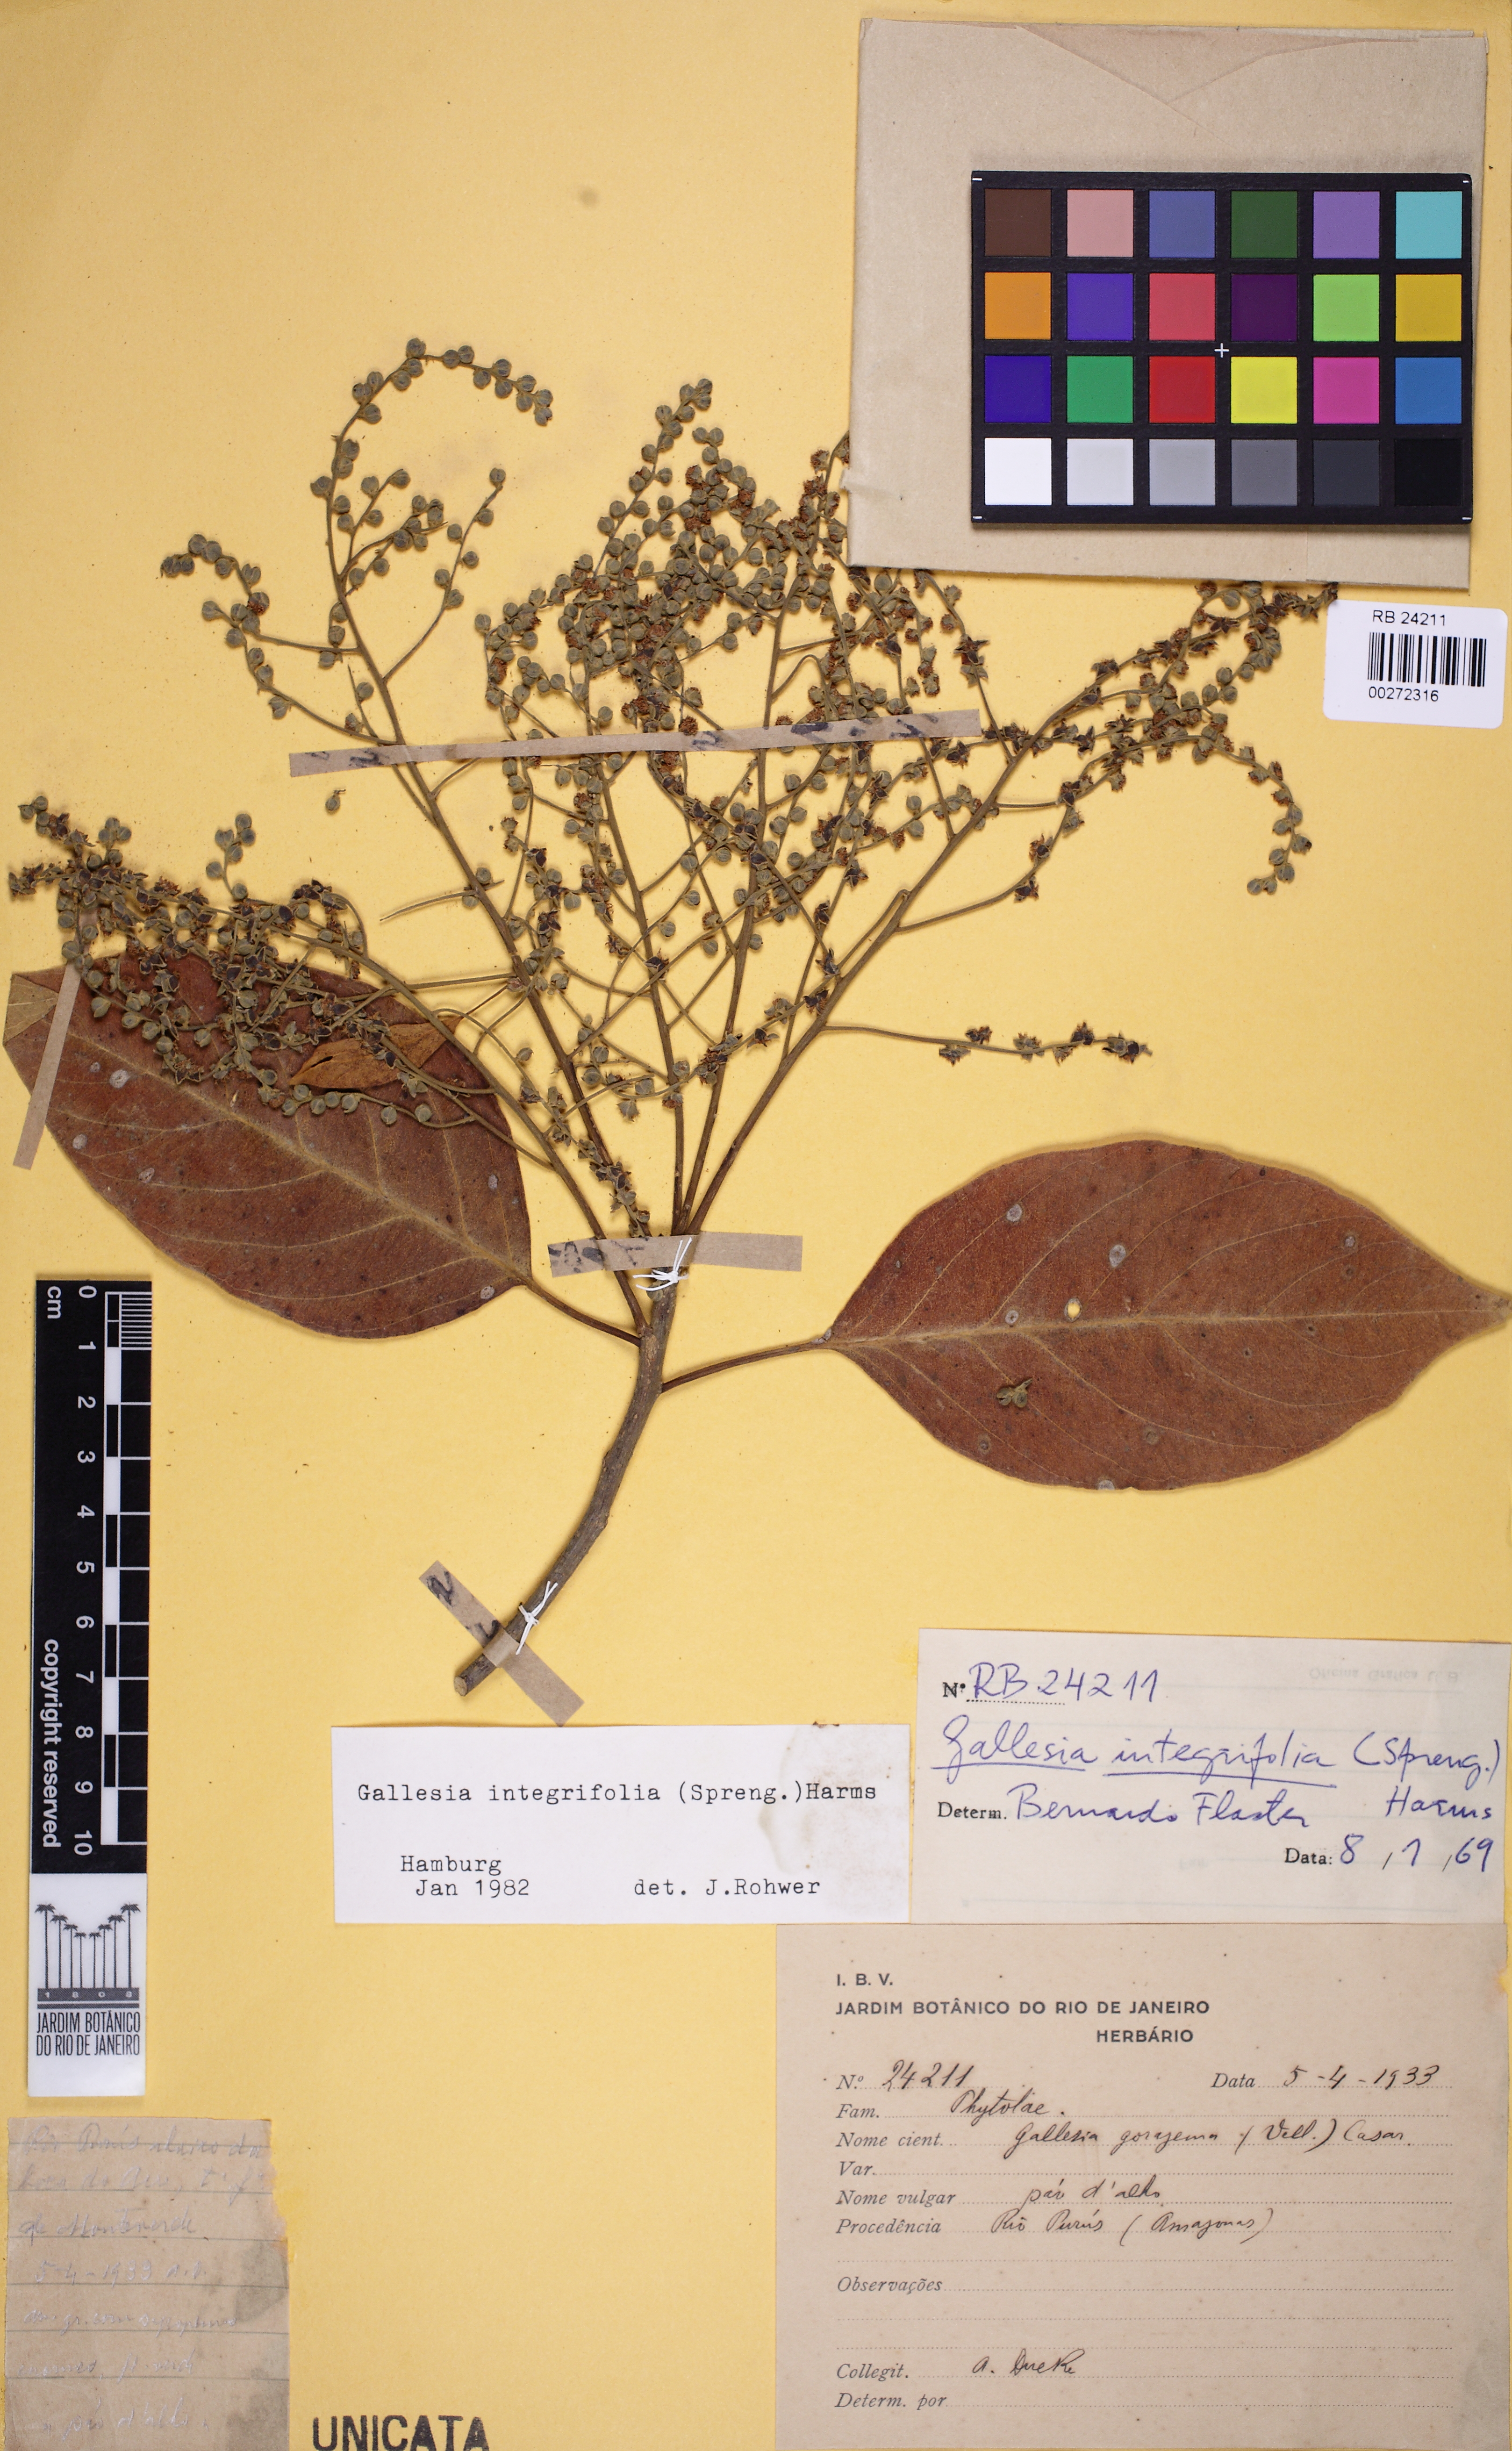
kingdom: Plantae
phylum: Tracheophyta
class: Magnoliopsida
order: Caryophyllales
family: Phytolaccaceae
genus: Gallesia
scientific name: Gallesia integrifolia
